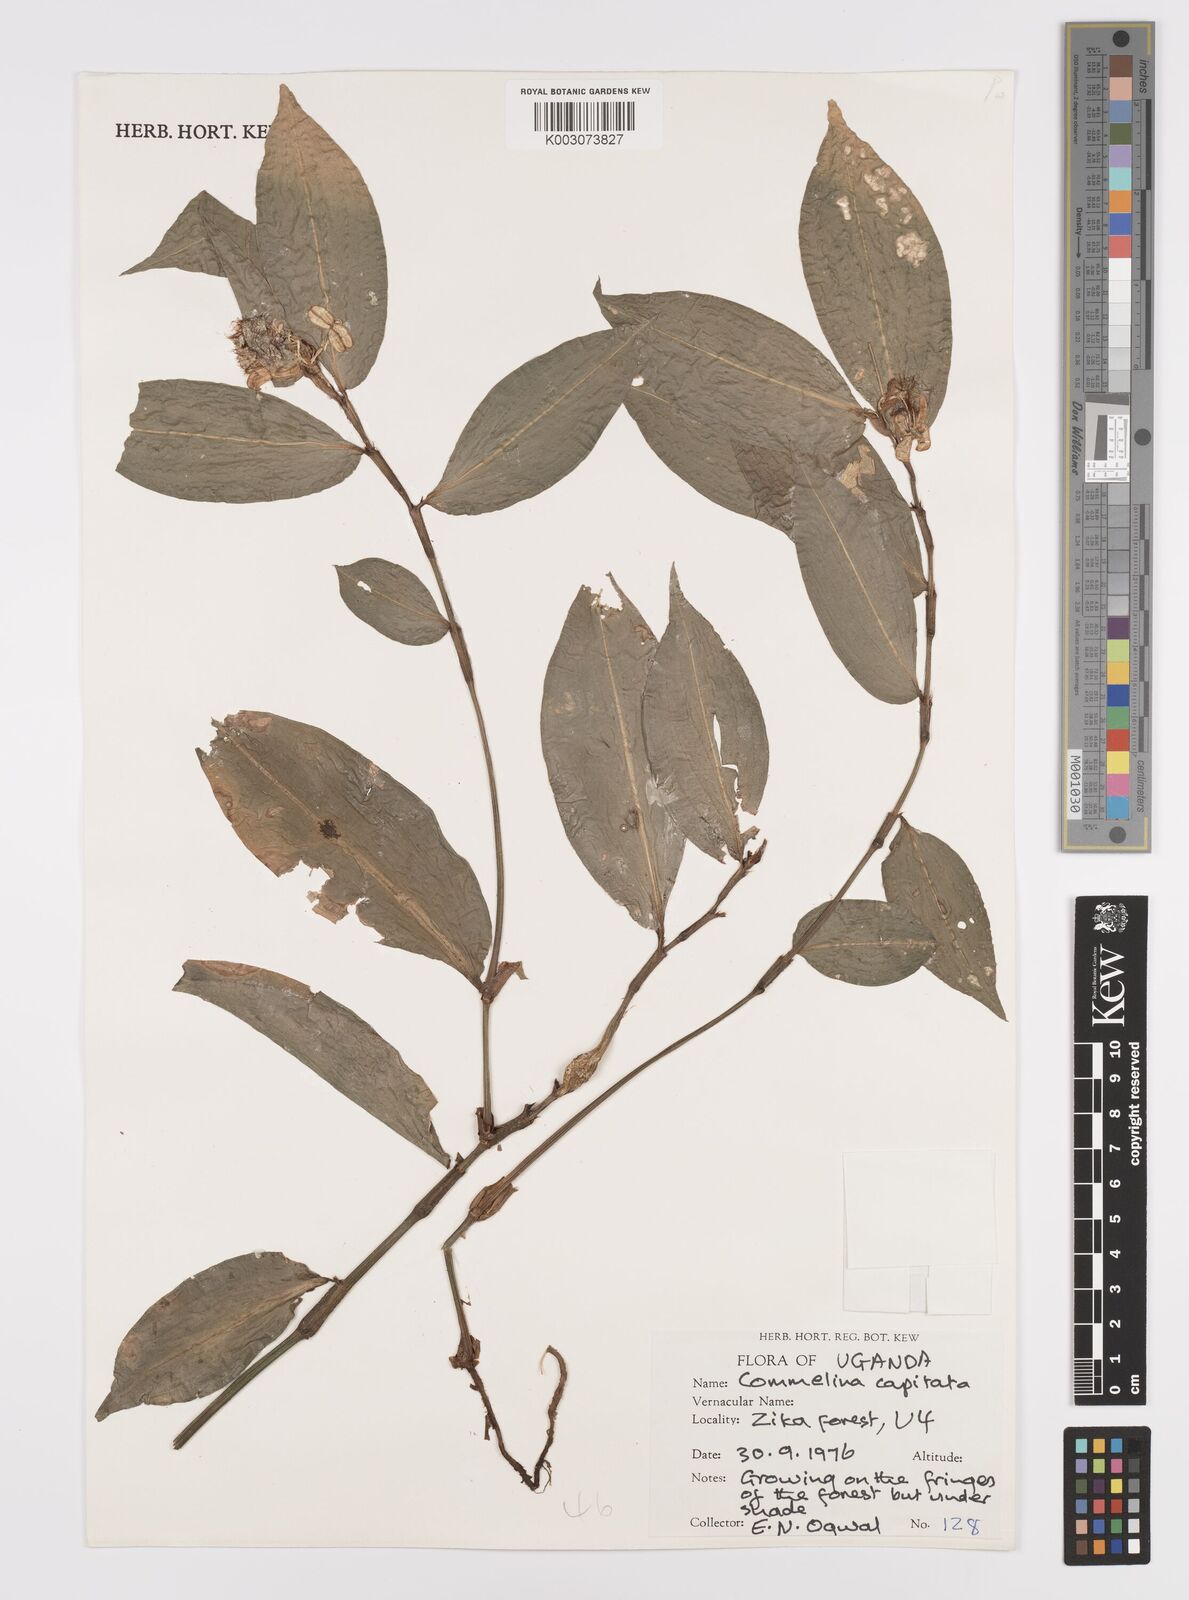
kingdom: Plantae
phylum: Tracheophyta
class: Liliopsida
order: Commelinales
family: Commelinaceae
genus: Commelina
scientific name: Commelina capitata
